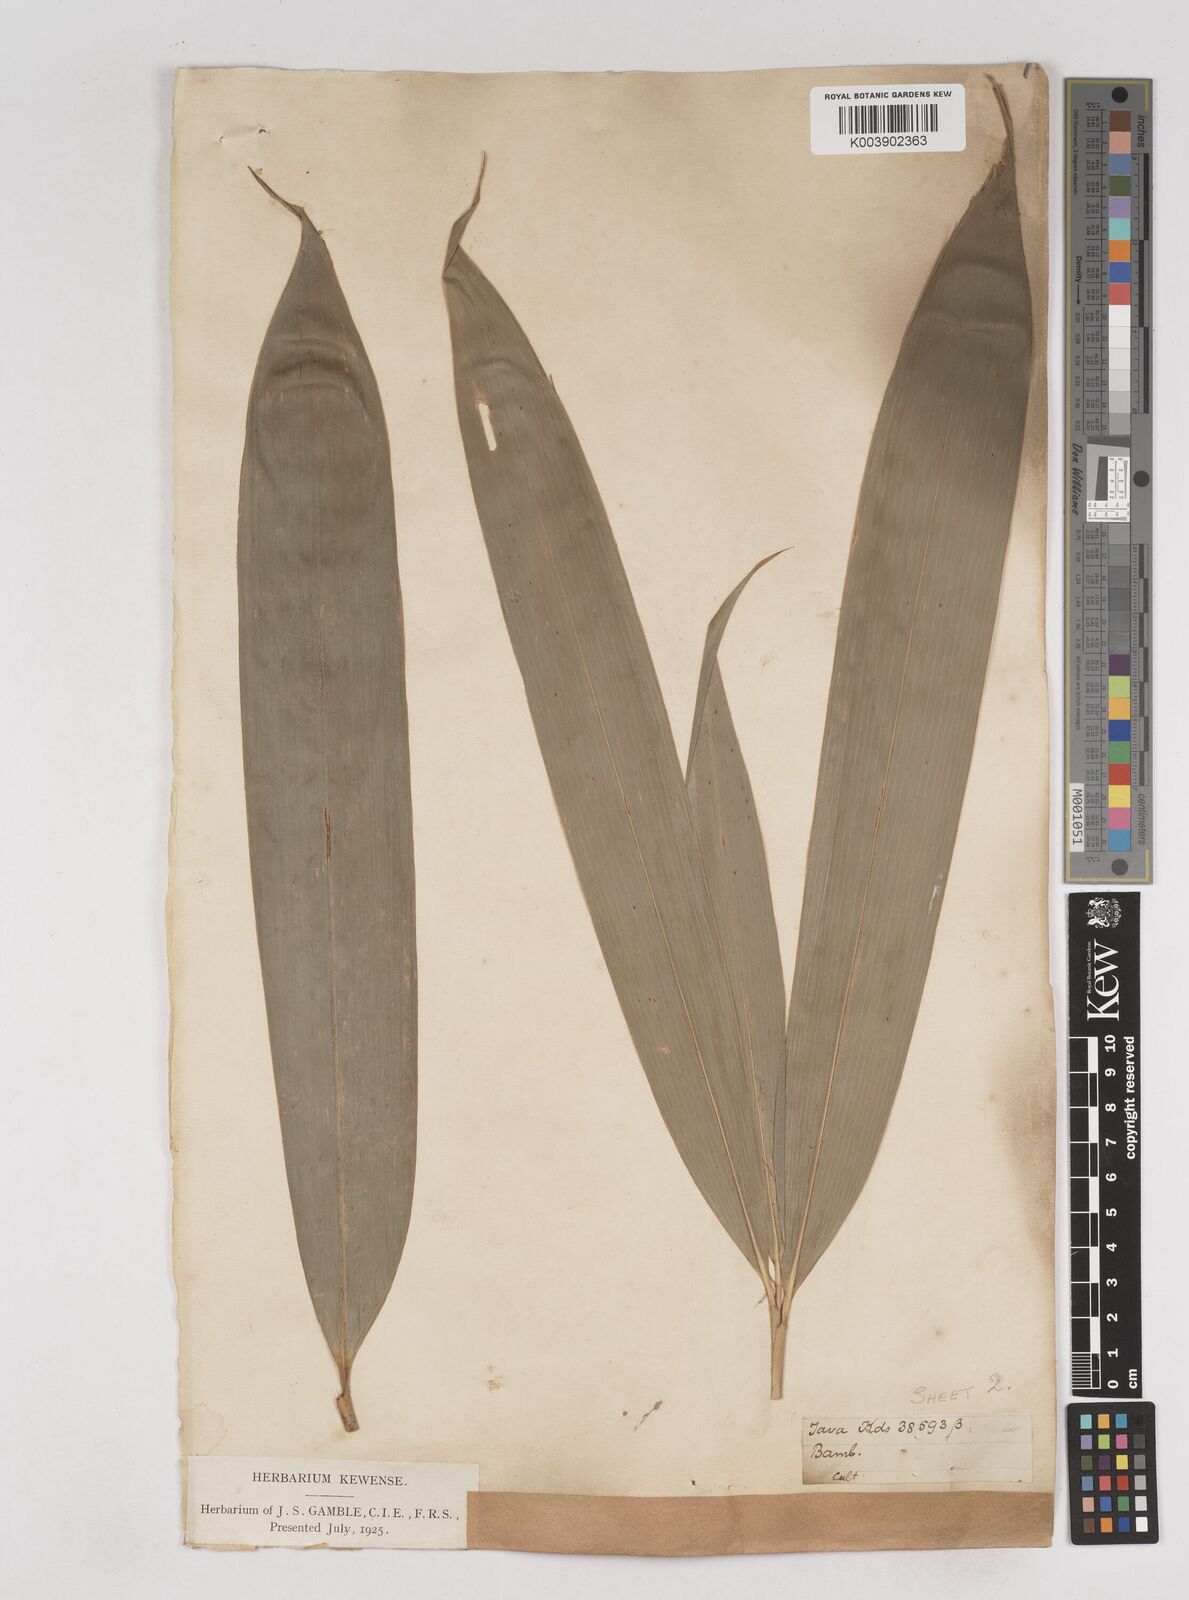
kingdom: Plantae
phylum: Tracheophyta
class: Liliopsida
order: Poales
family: Poaceae
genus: Schizostachyum
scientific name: Schizostachyum zollingeri
